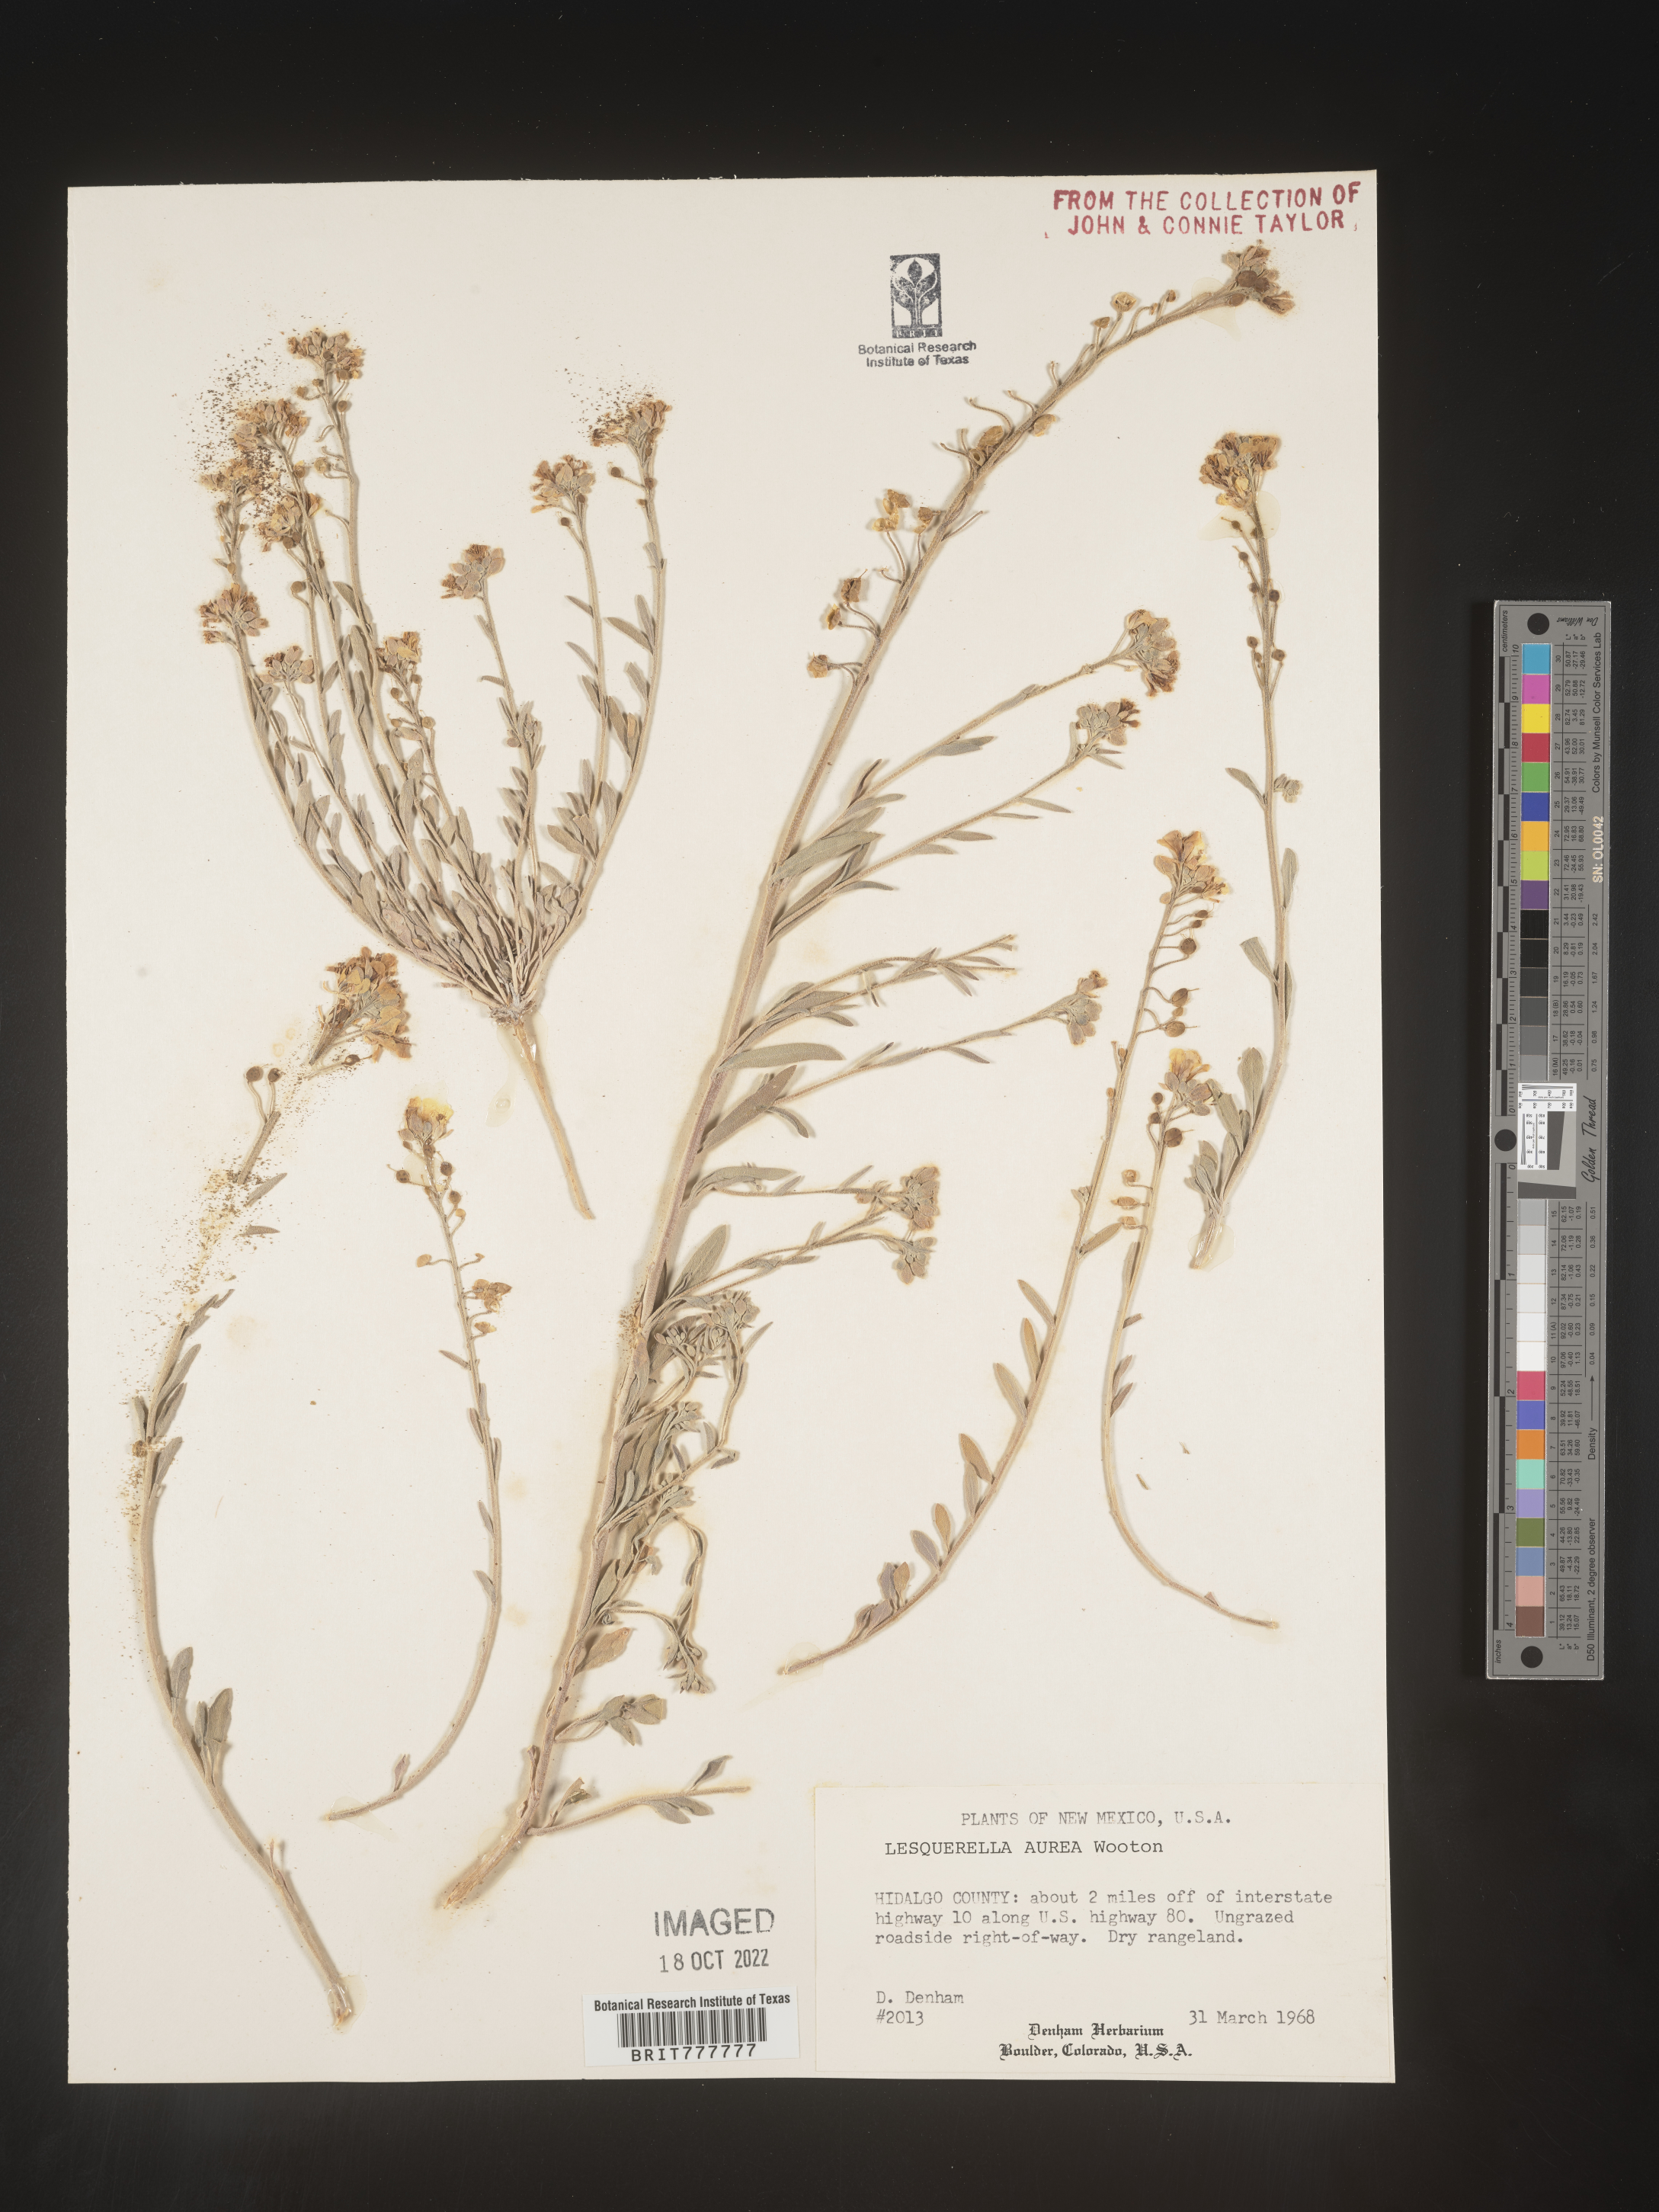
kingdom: Chromista
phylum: Cercozoa
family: Psammonobiotidae
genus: Lesquerella
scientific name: Lesquerella
